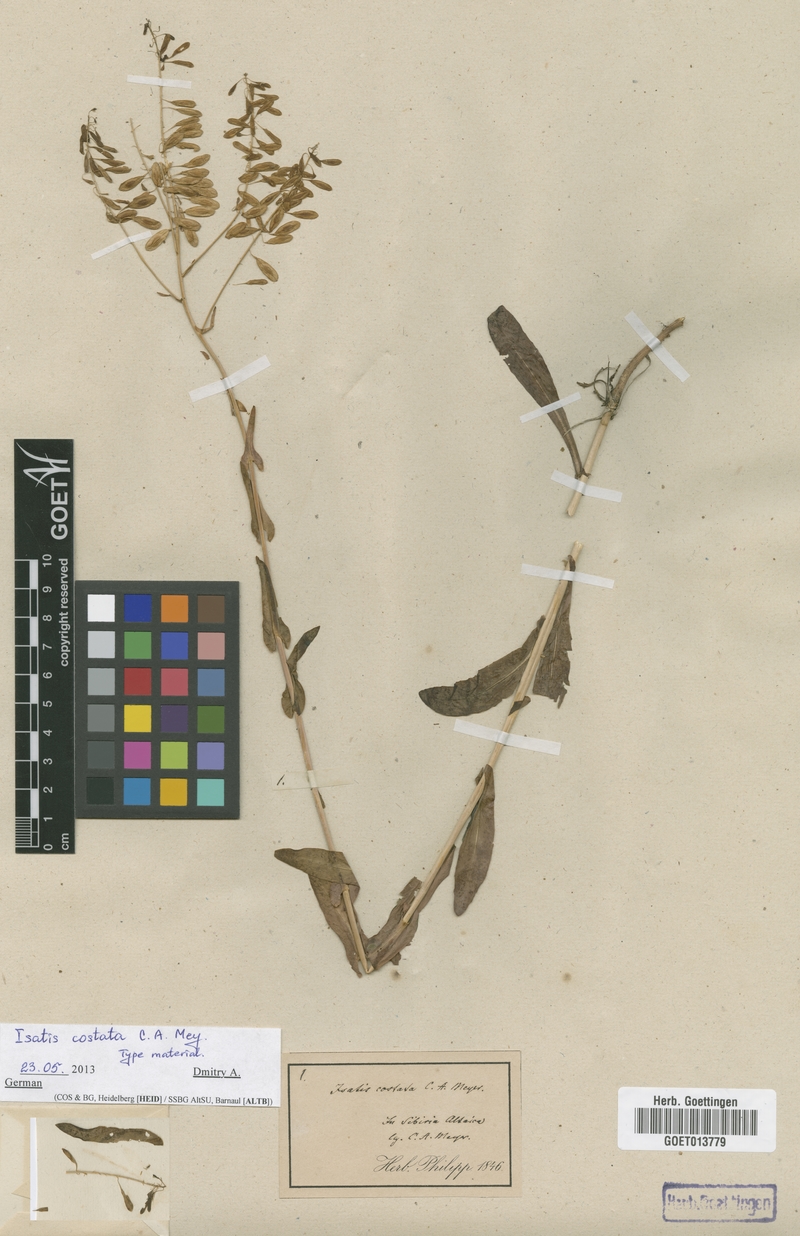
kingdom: Plantae
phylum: Tracheophyta
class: Magnoliopsida
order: Brassicales
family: Brassicaceae
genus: Isatis
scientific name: Isatis costata
